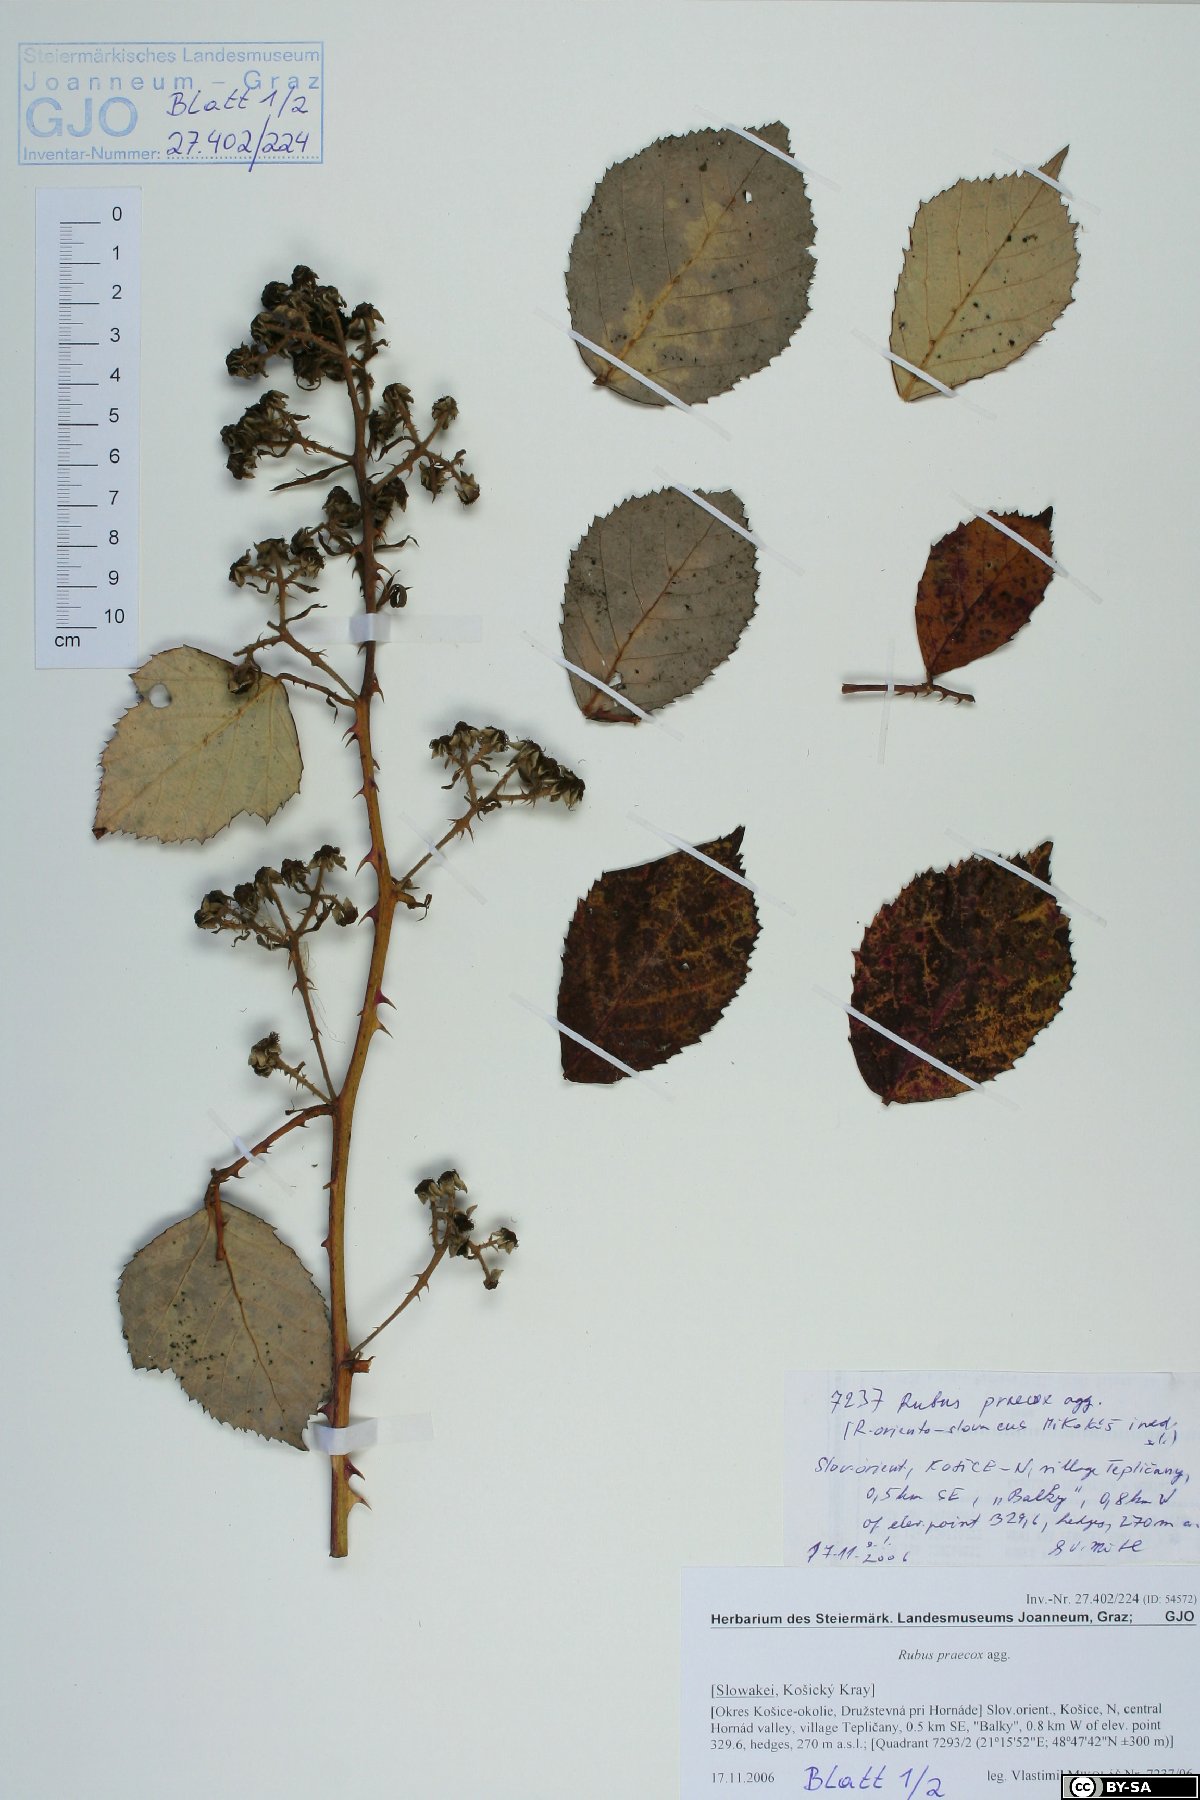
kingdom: Plantae
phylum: Tracheophyta
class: Magnoliopsida
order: Rosales
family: Rosaceae
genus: Rubus
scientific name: Rubus sulcatus
